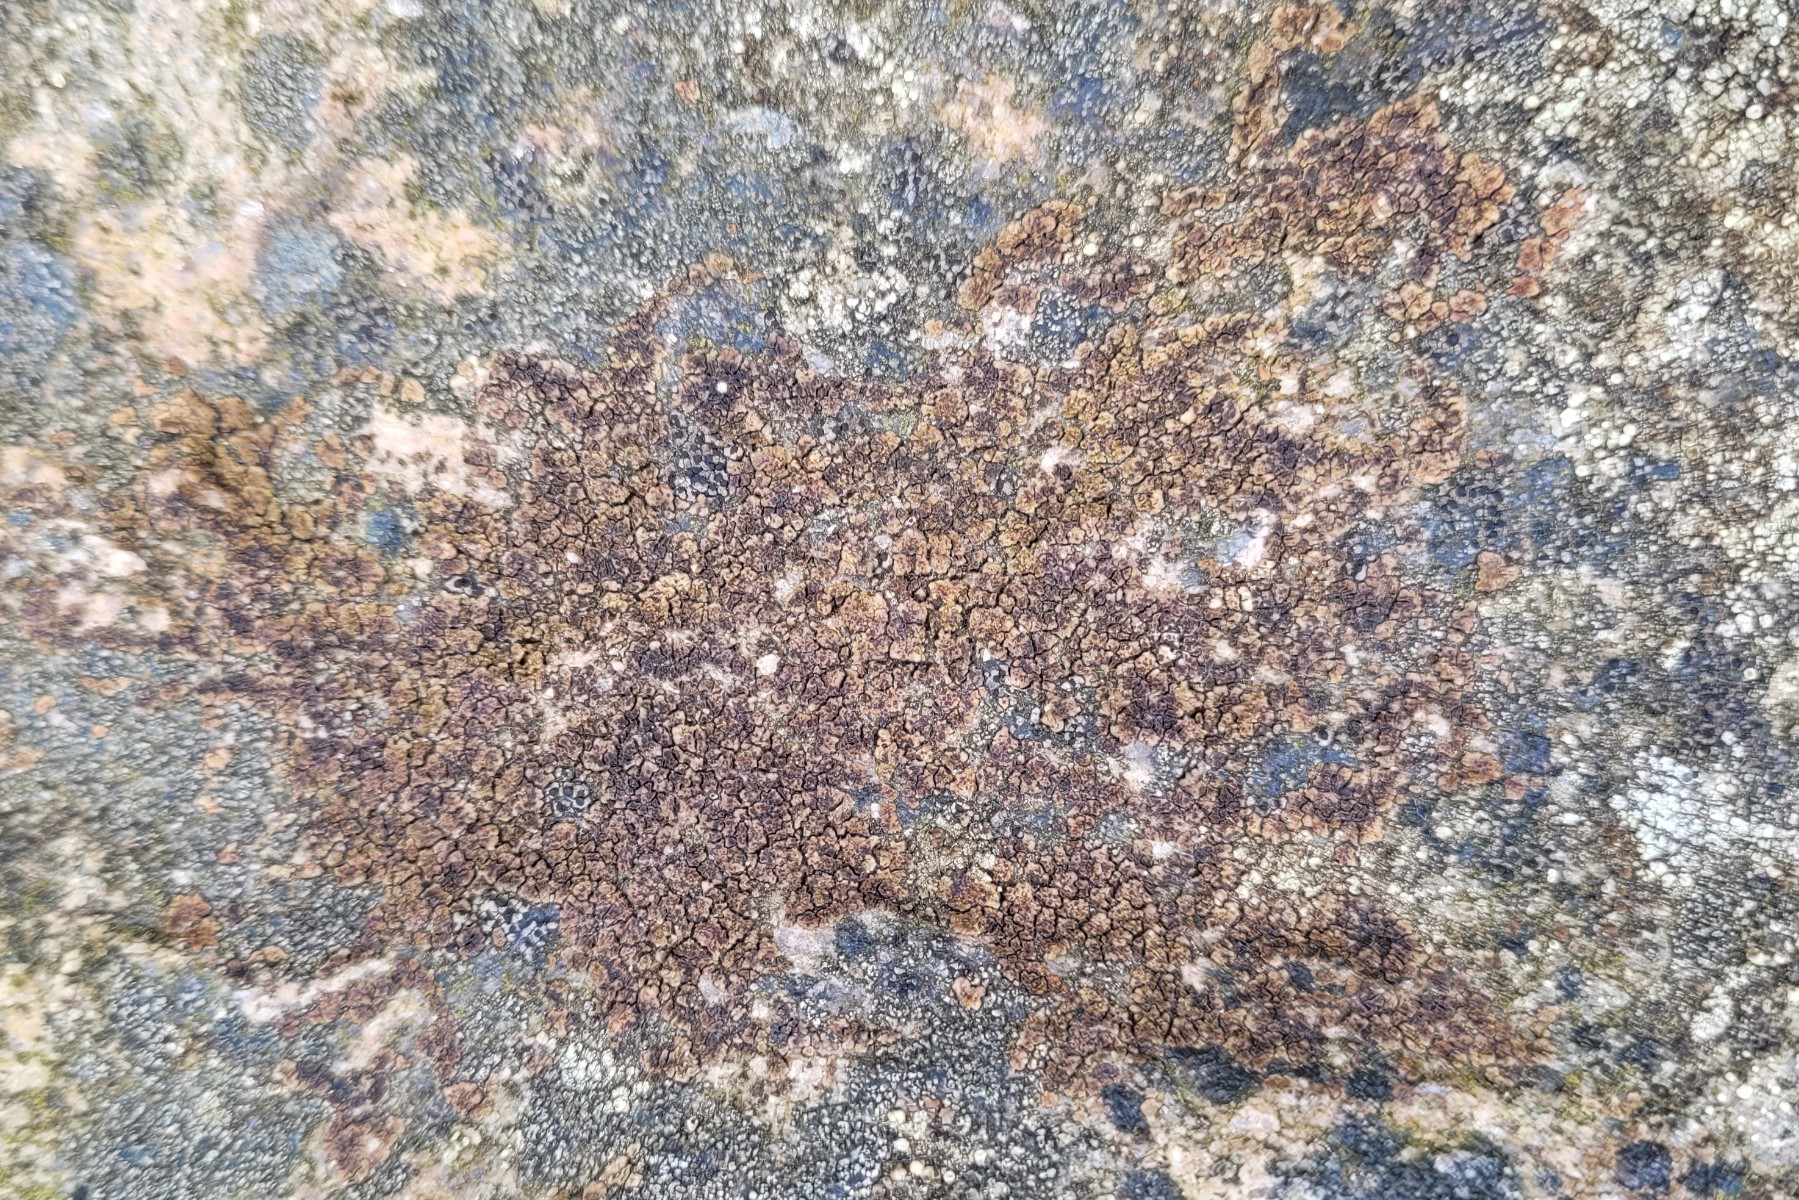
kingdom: Fungi
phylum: Ascomycota
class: Lecanoromycetes
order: Acarosporales
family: Acarosporaceae
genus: Acarospora
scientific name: Acarospora fuscata
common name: brun småsporelav
